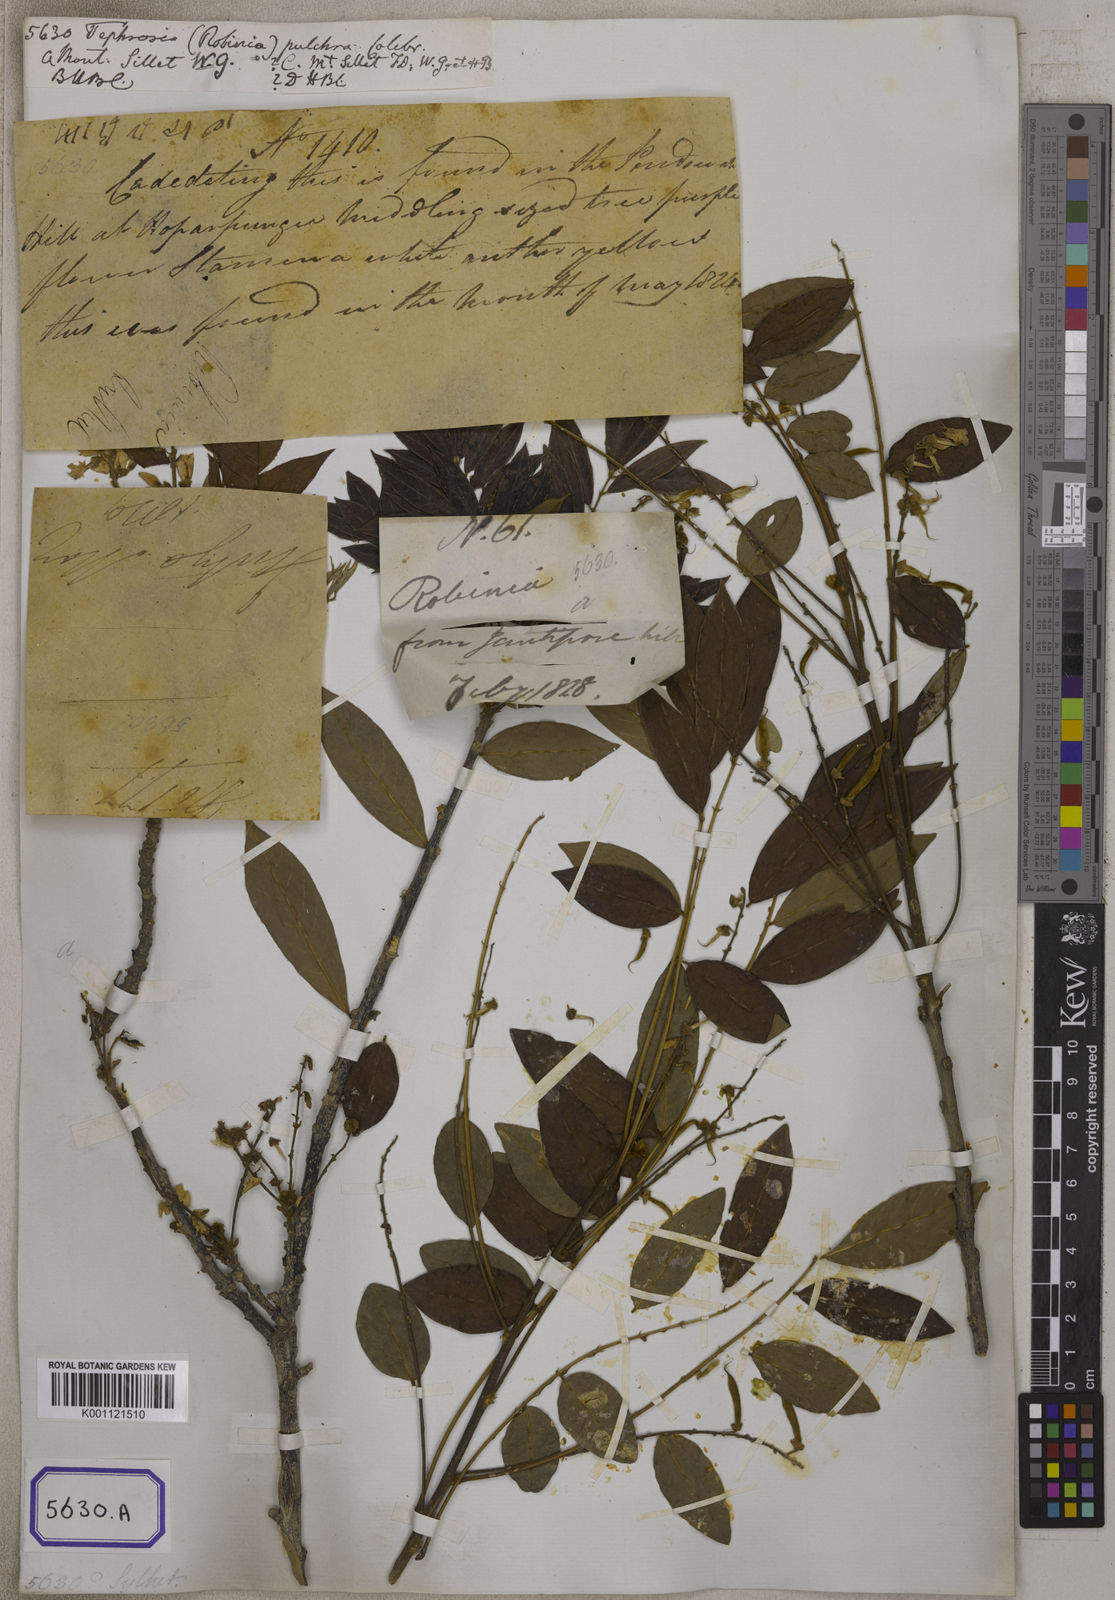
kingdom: Plantae
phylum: Tracheophyta
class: Magnoliopsida
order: Fabales
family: Fabaceae
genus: Millettia
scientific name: Millettia pulchra
